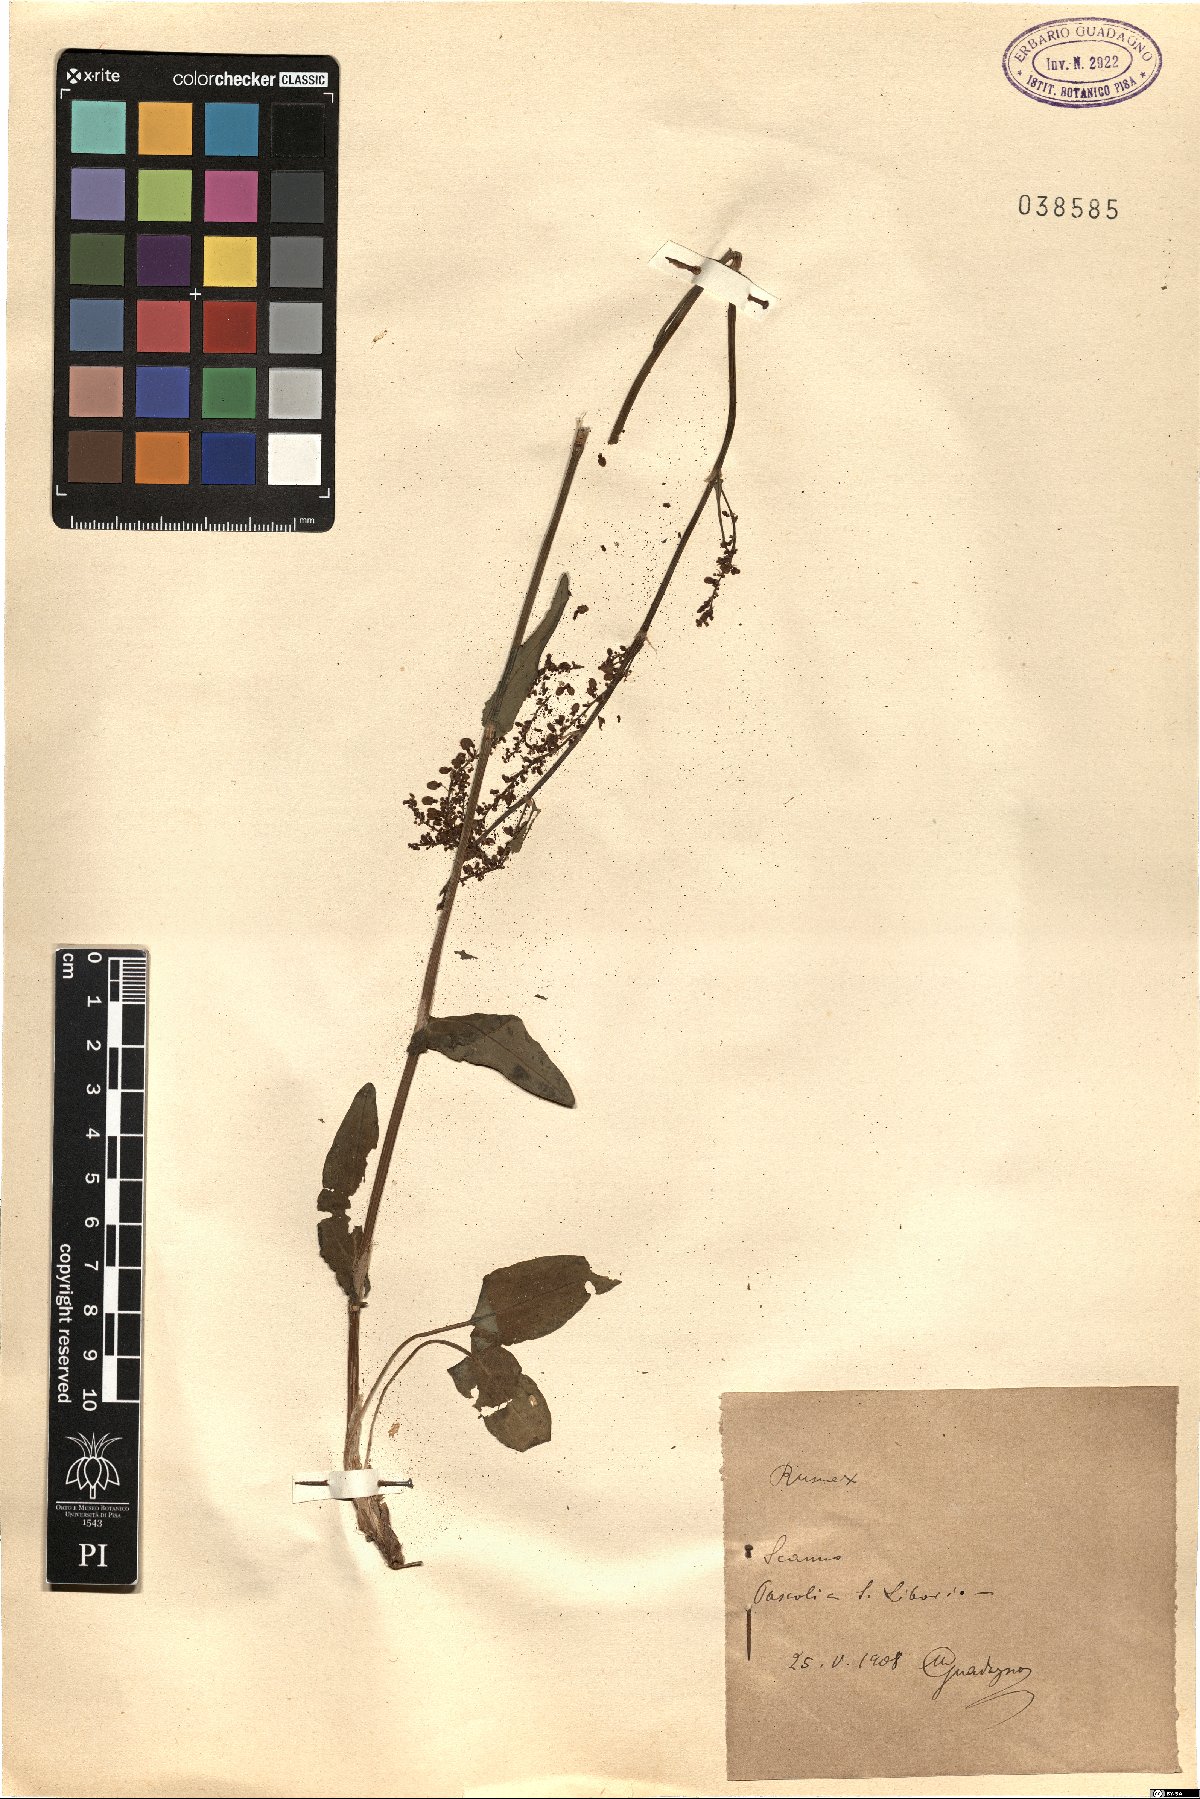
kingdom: Plantae
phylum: Tracheophyta
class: Magnoliopsida
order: Caryophyllales
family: Polygonaceae
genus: Rumex
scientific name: Rumex
